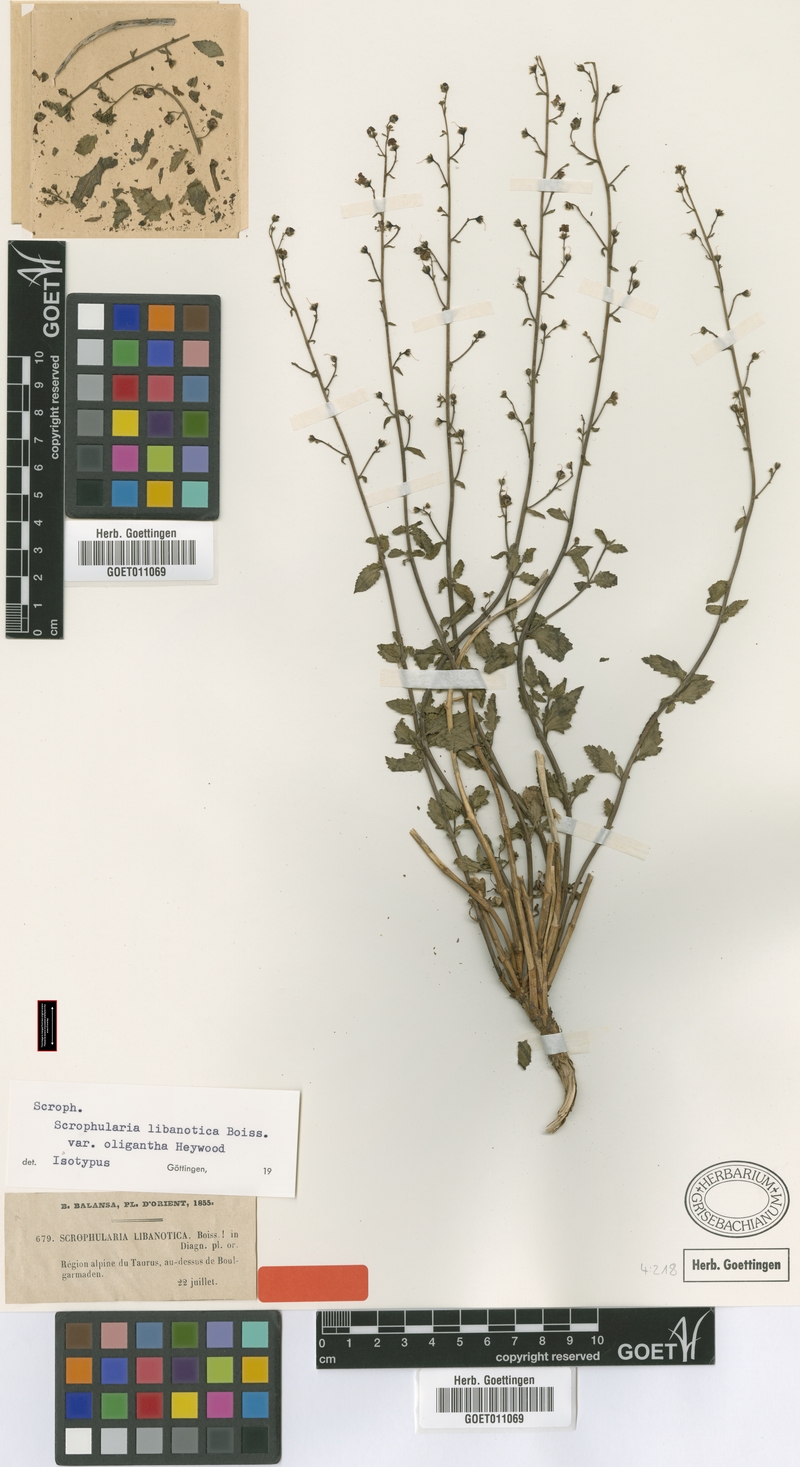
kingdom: Plantae
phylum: Tracheophyta
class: Magnoliopsida
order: Lamiales
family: Scrophulariaceae
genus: Scrophularia
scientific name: Scrophularia libanotica
